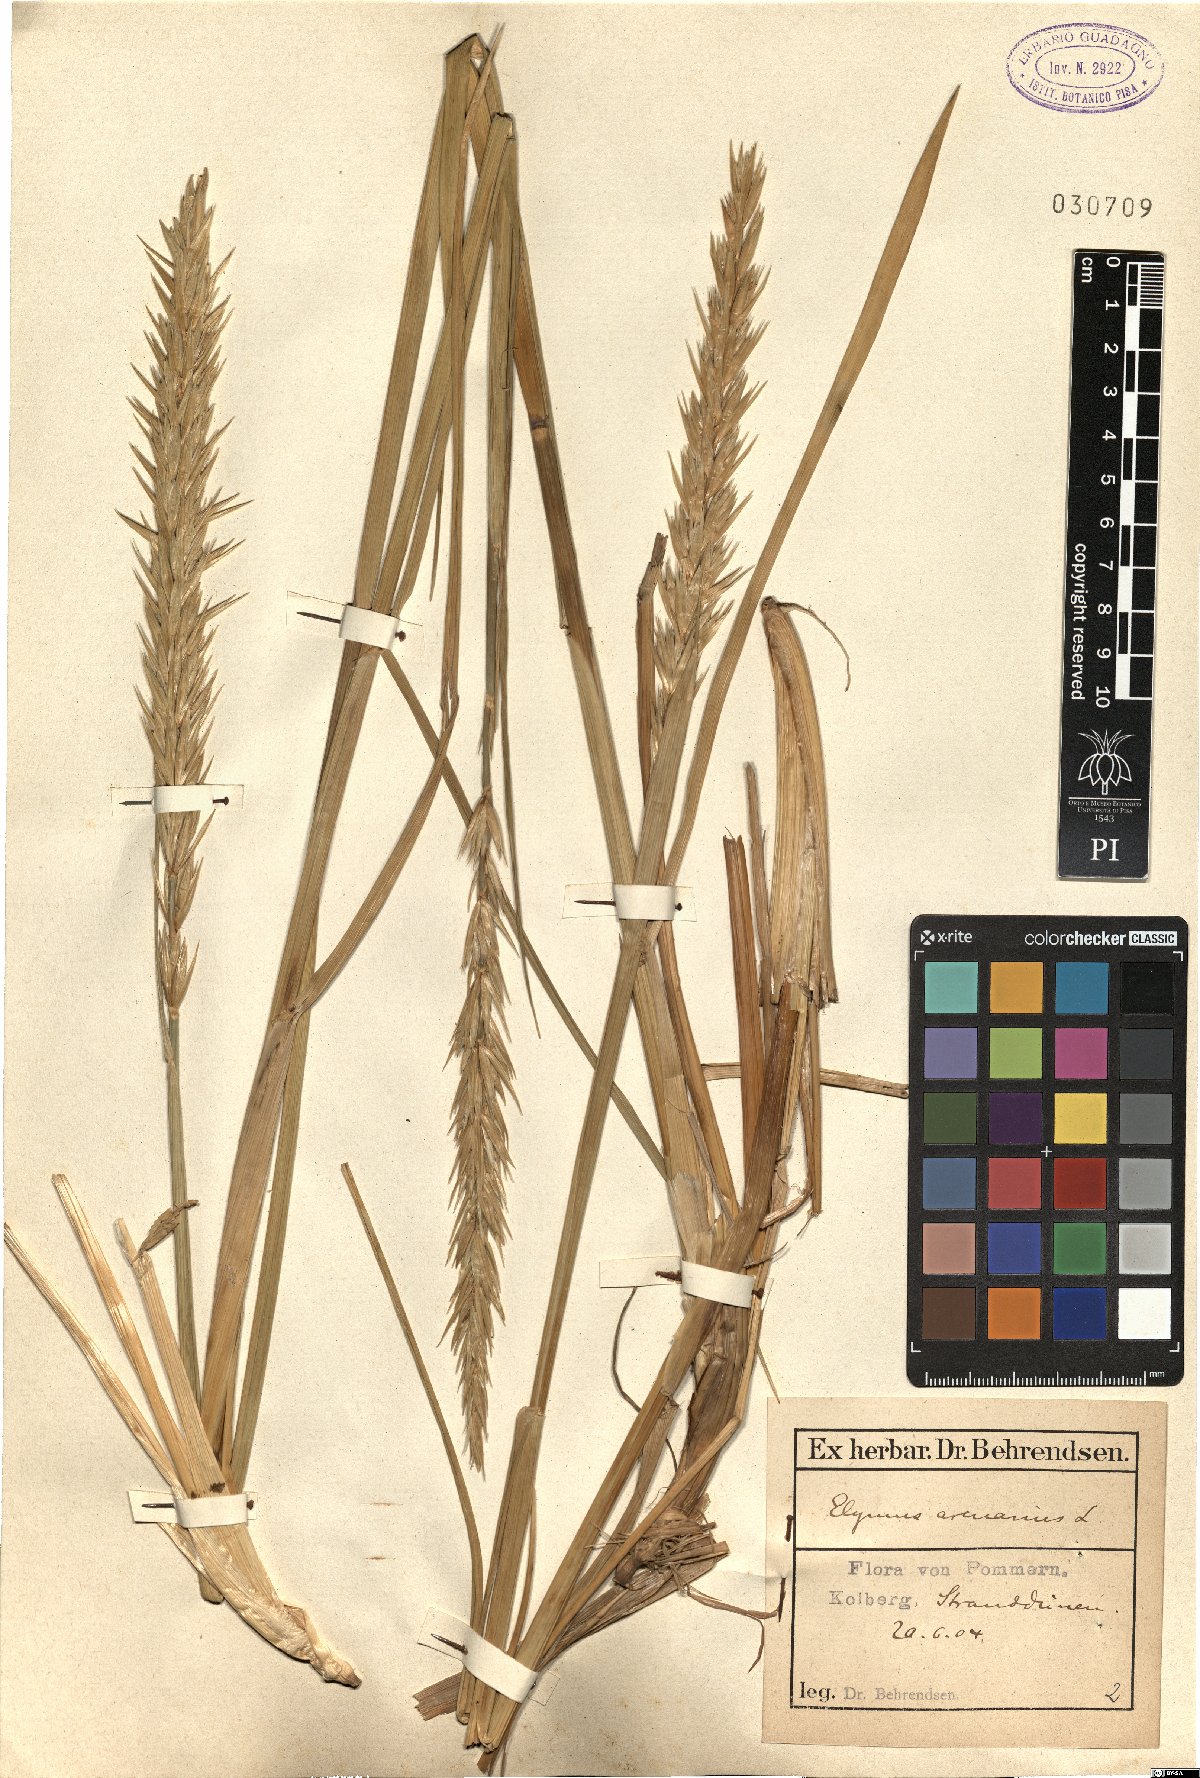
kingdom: Plantae
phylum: Tracheophyta
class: Liliopsida
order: Poales
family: Poaceae
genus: Leymus
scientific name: Leymus arenarius
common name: Lyme-grass
